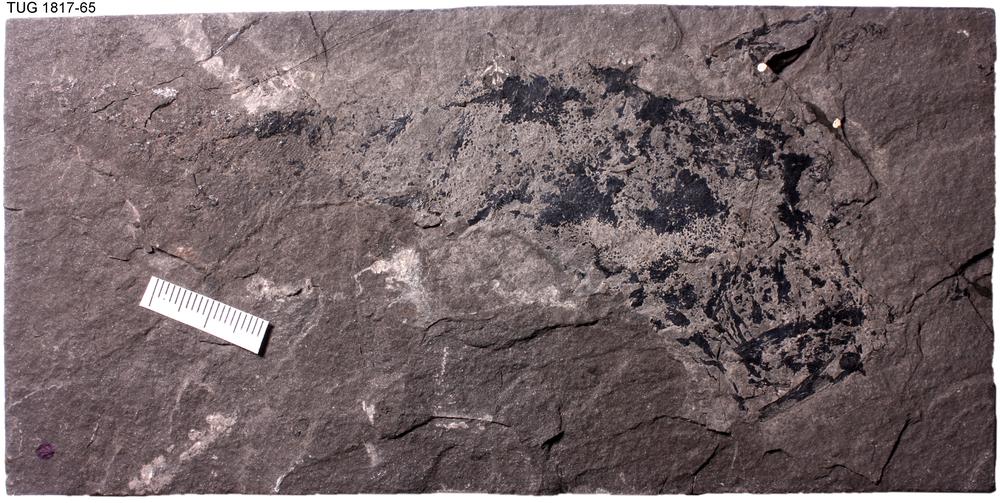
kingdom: Animalia
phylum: Chordata
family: Acanthodidae
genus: Cheiracanthus
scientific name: Cheiracanthus murchisoni
